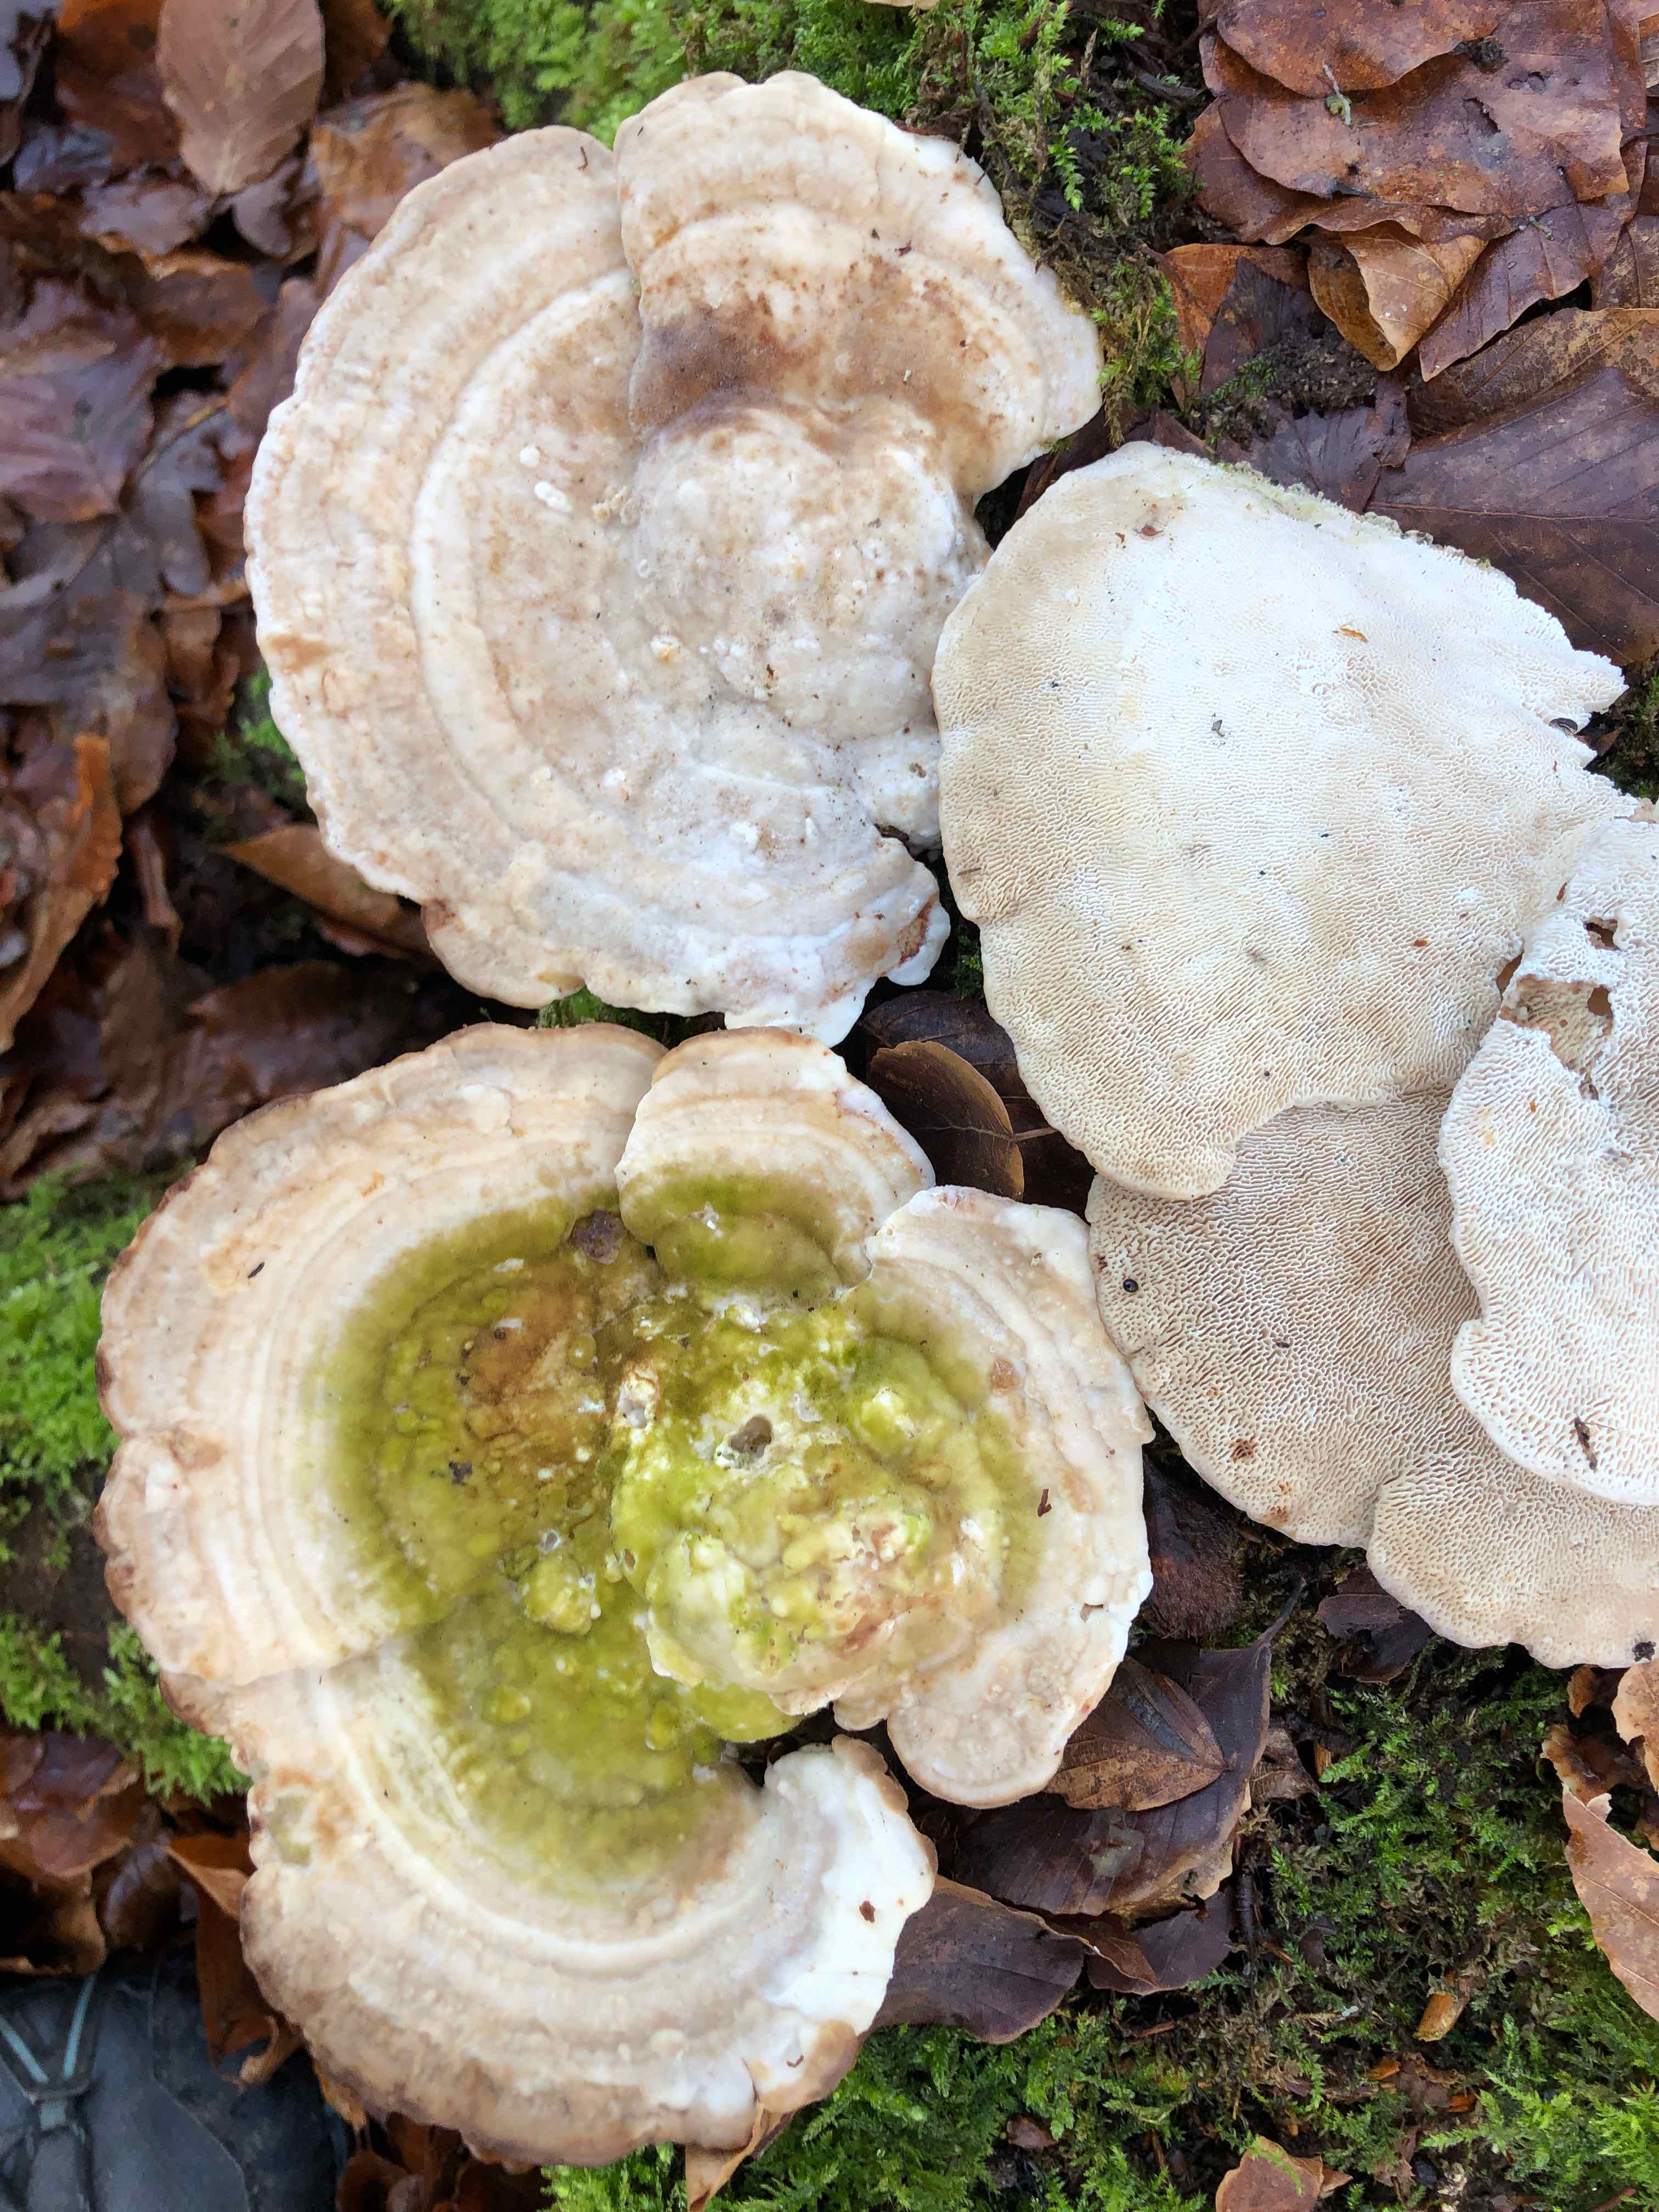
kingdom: Fungi
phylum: Basidiomycota
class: Agaricomycetes
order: Polyporales
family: Polyporaceae
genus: Trametes
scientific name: Trametes gibbosa
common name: puklet læderporesvamp
